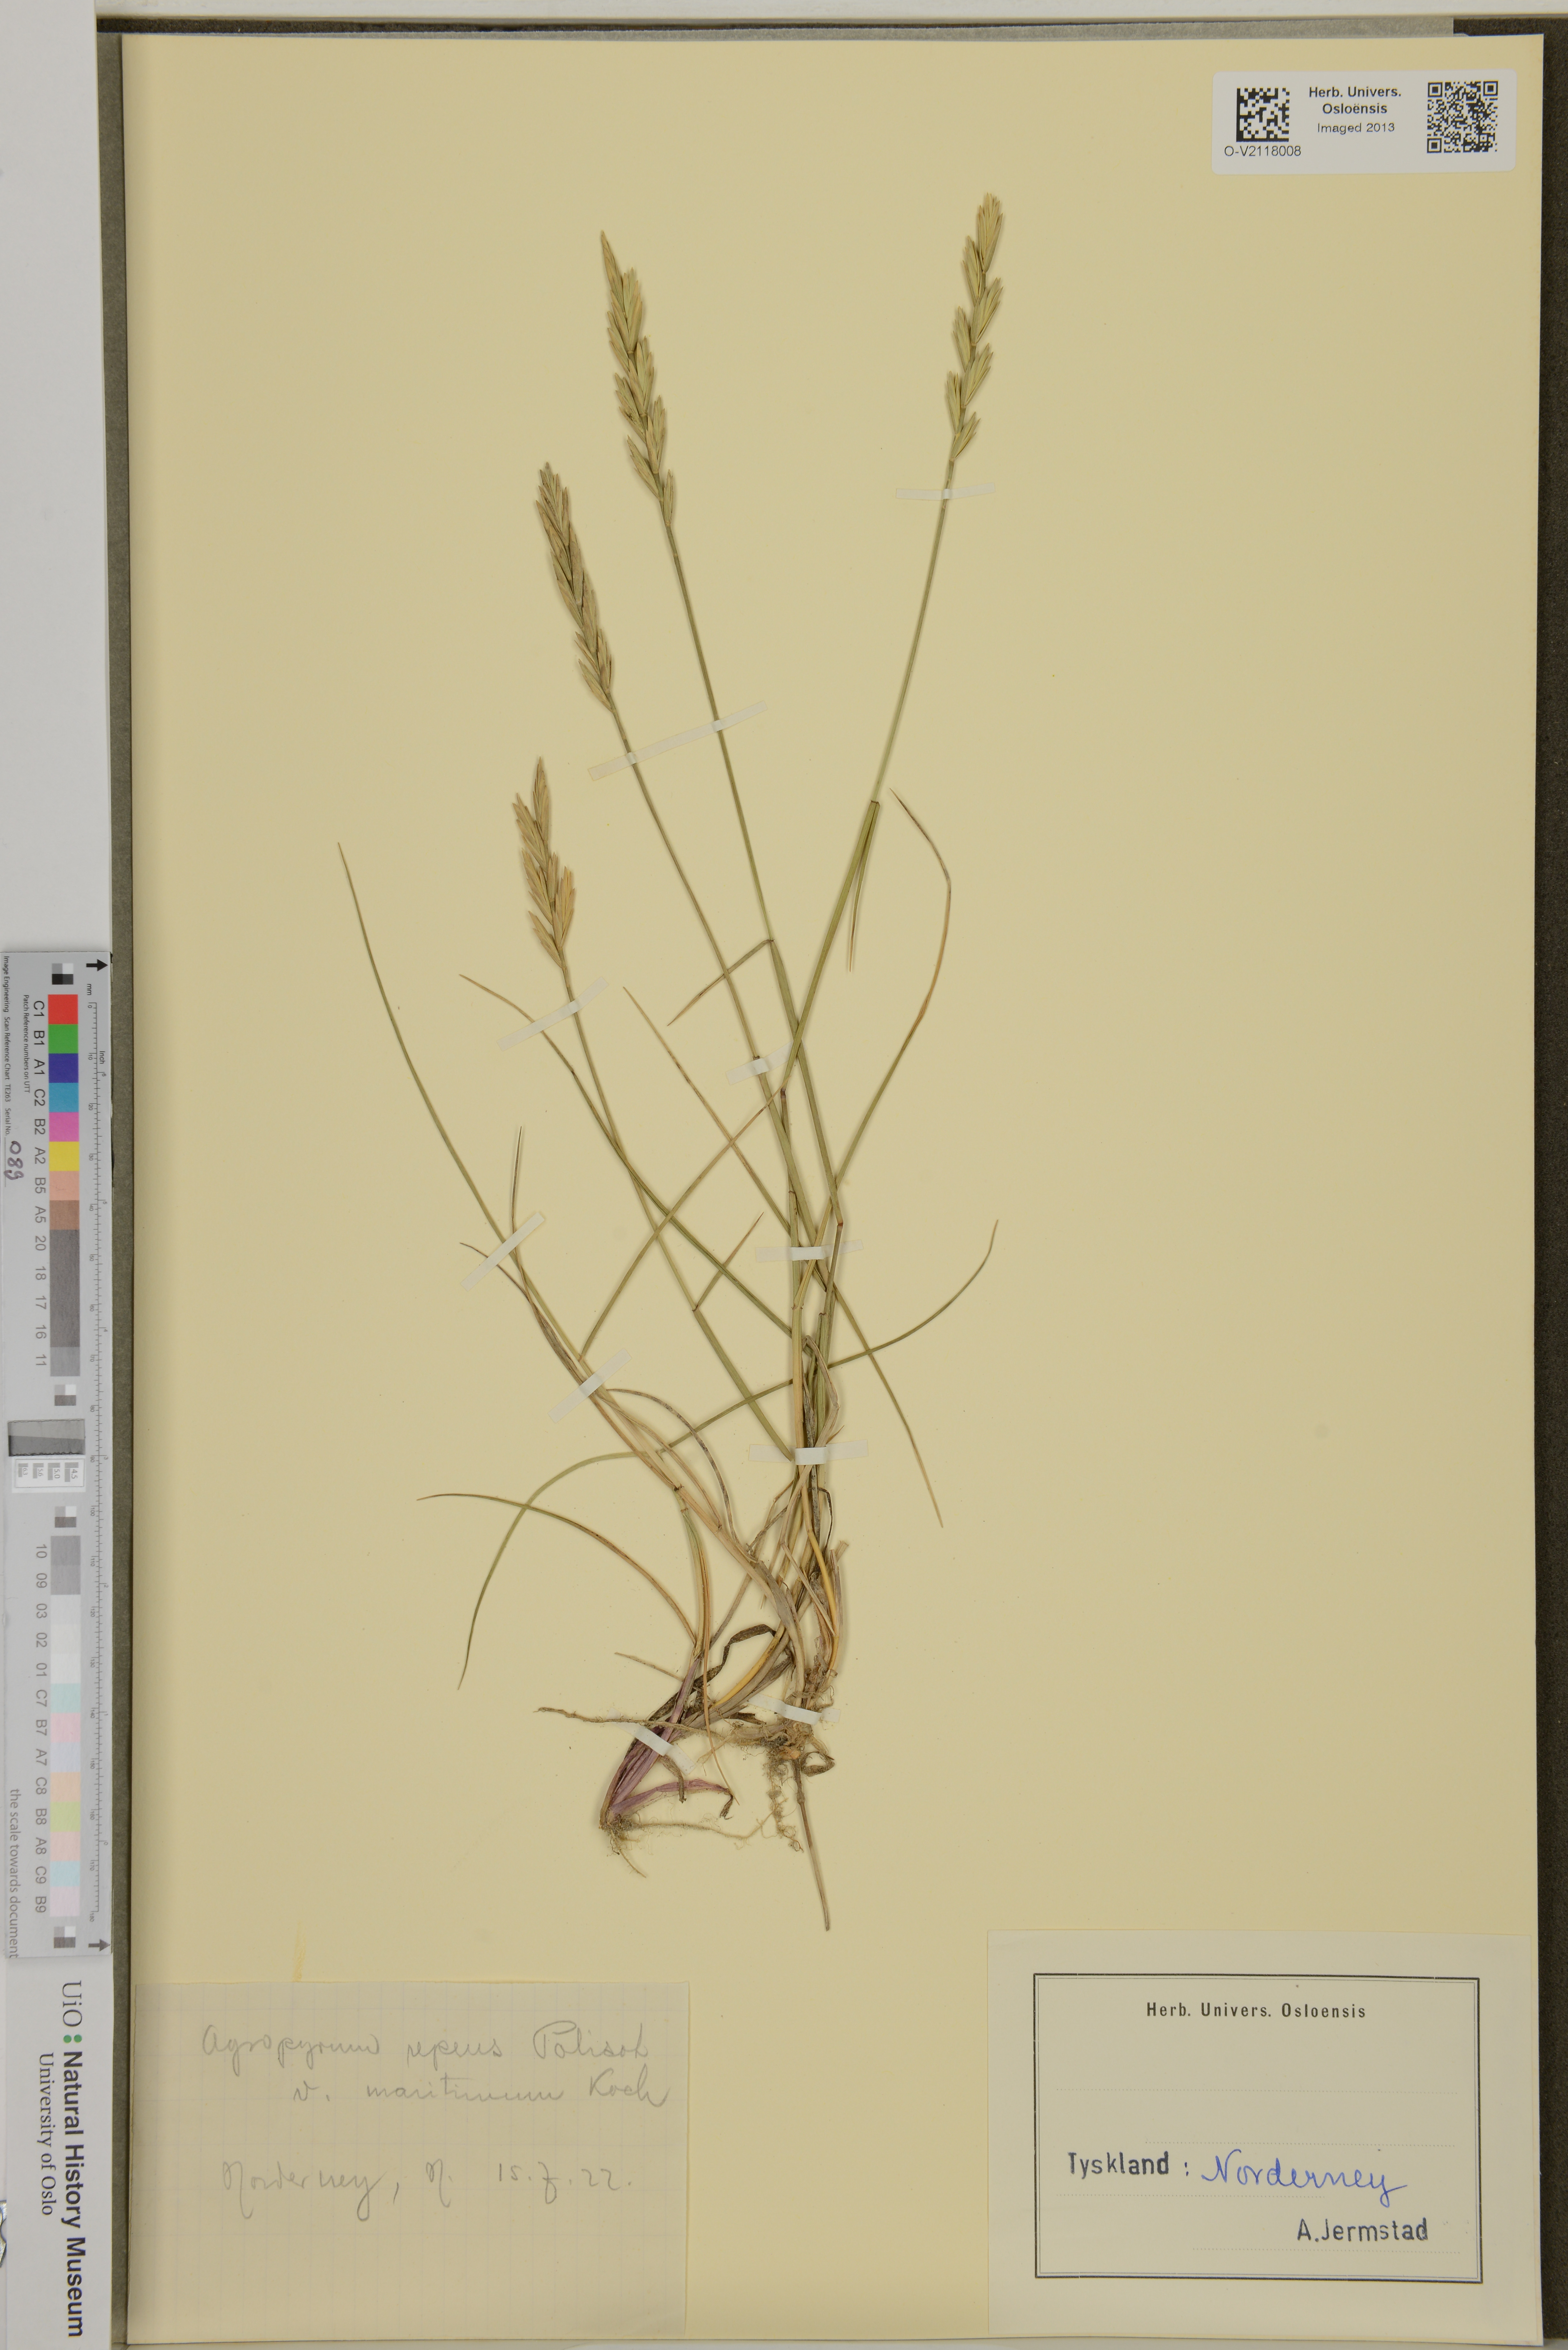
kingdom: Plantae
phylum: Tracheophyta
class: Liliopsida
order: Poales
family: Poaceae
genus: Elymus
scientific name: Elymus repens
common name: Quackgrass
